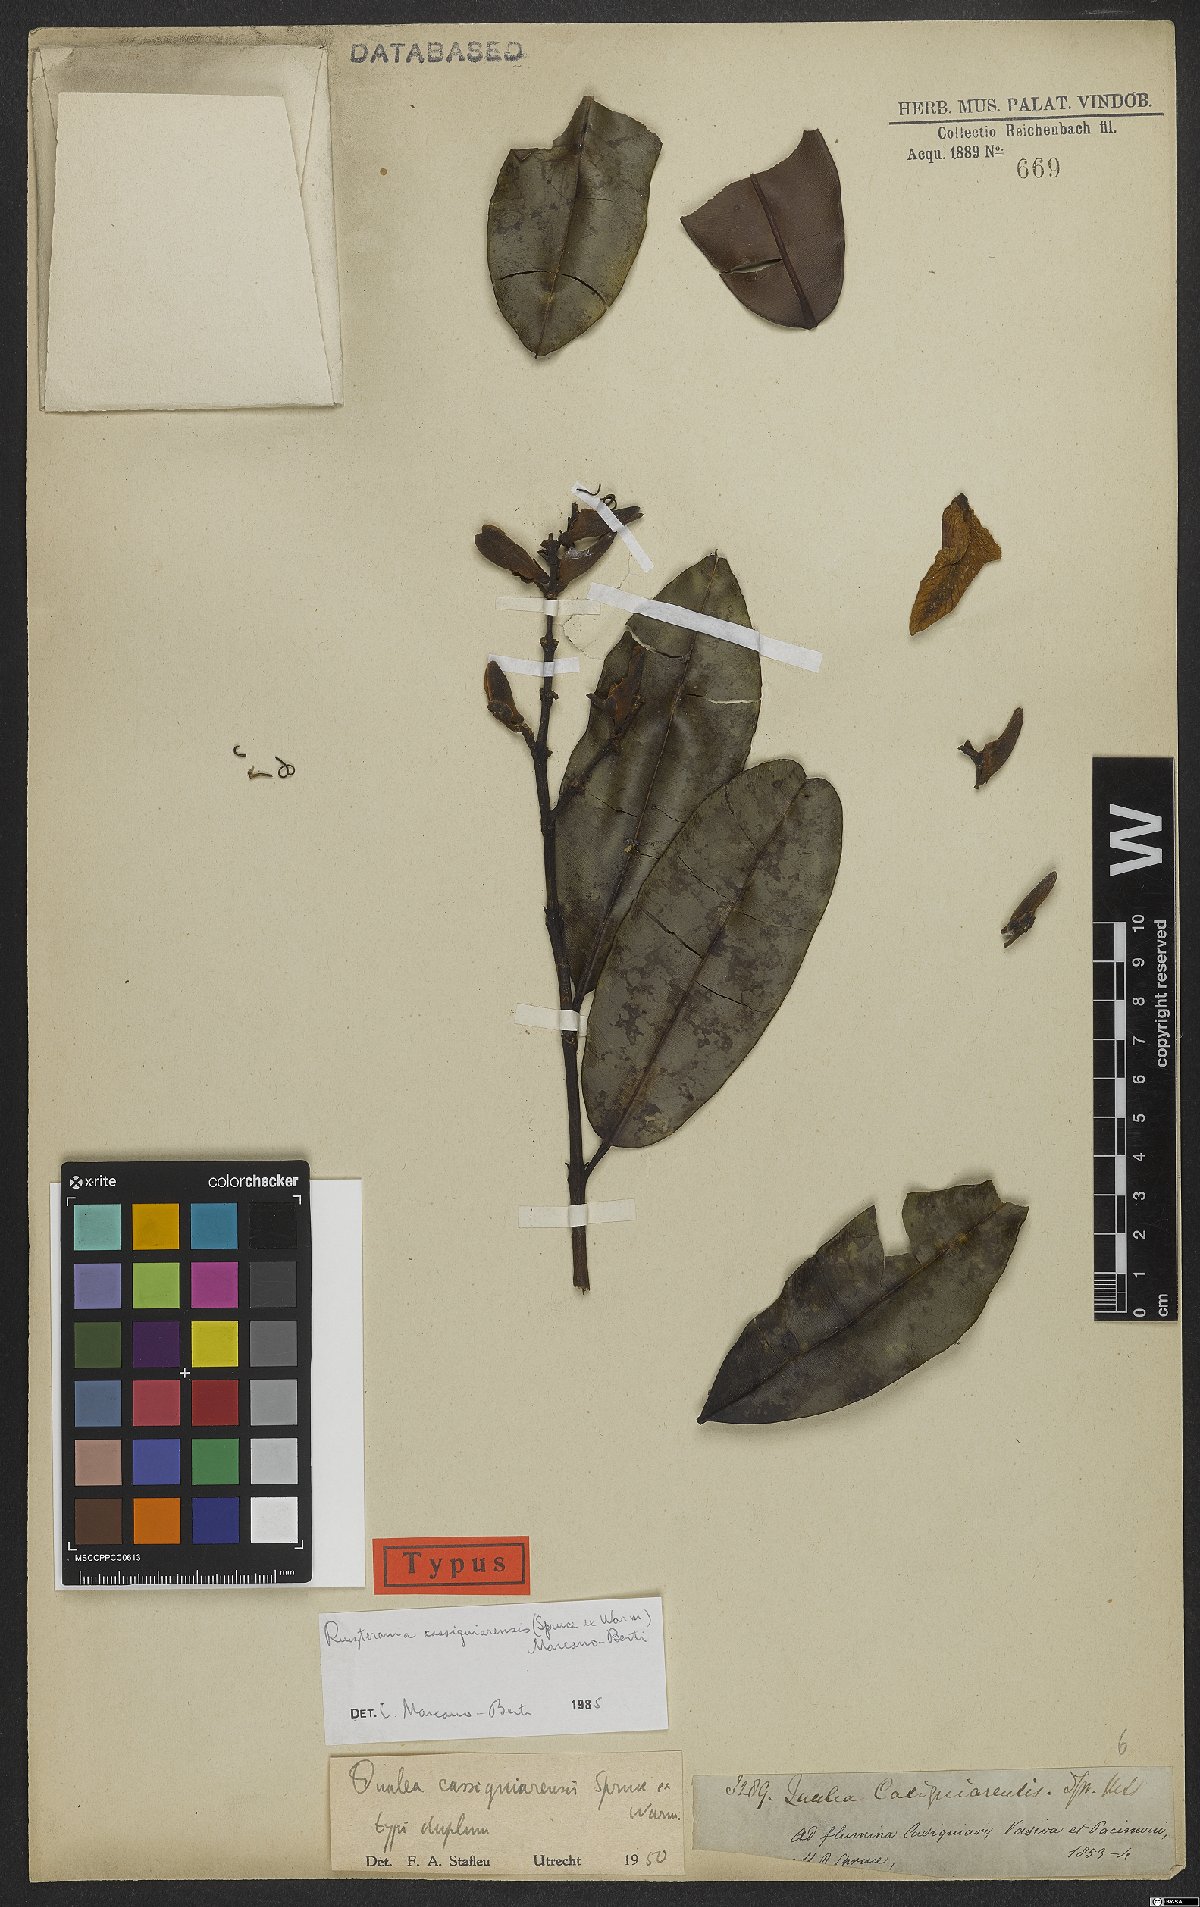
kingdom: Plantae
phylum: Tracheophyta
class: Magnoliopsida
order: Myrtales
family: Vochysiaceae
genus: Ruizterania
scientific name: Ruizterania cassiquiarensis
